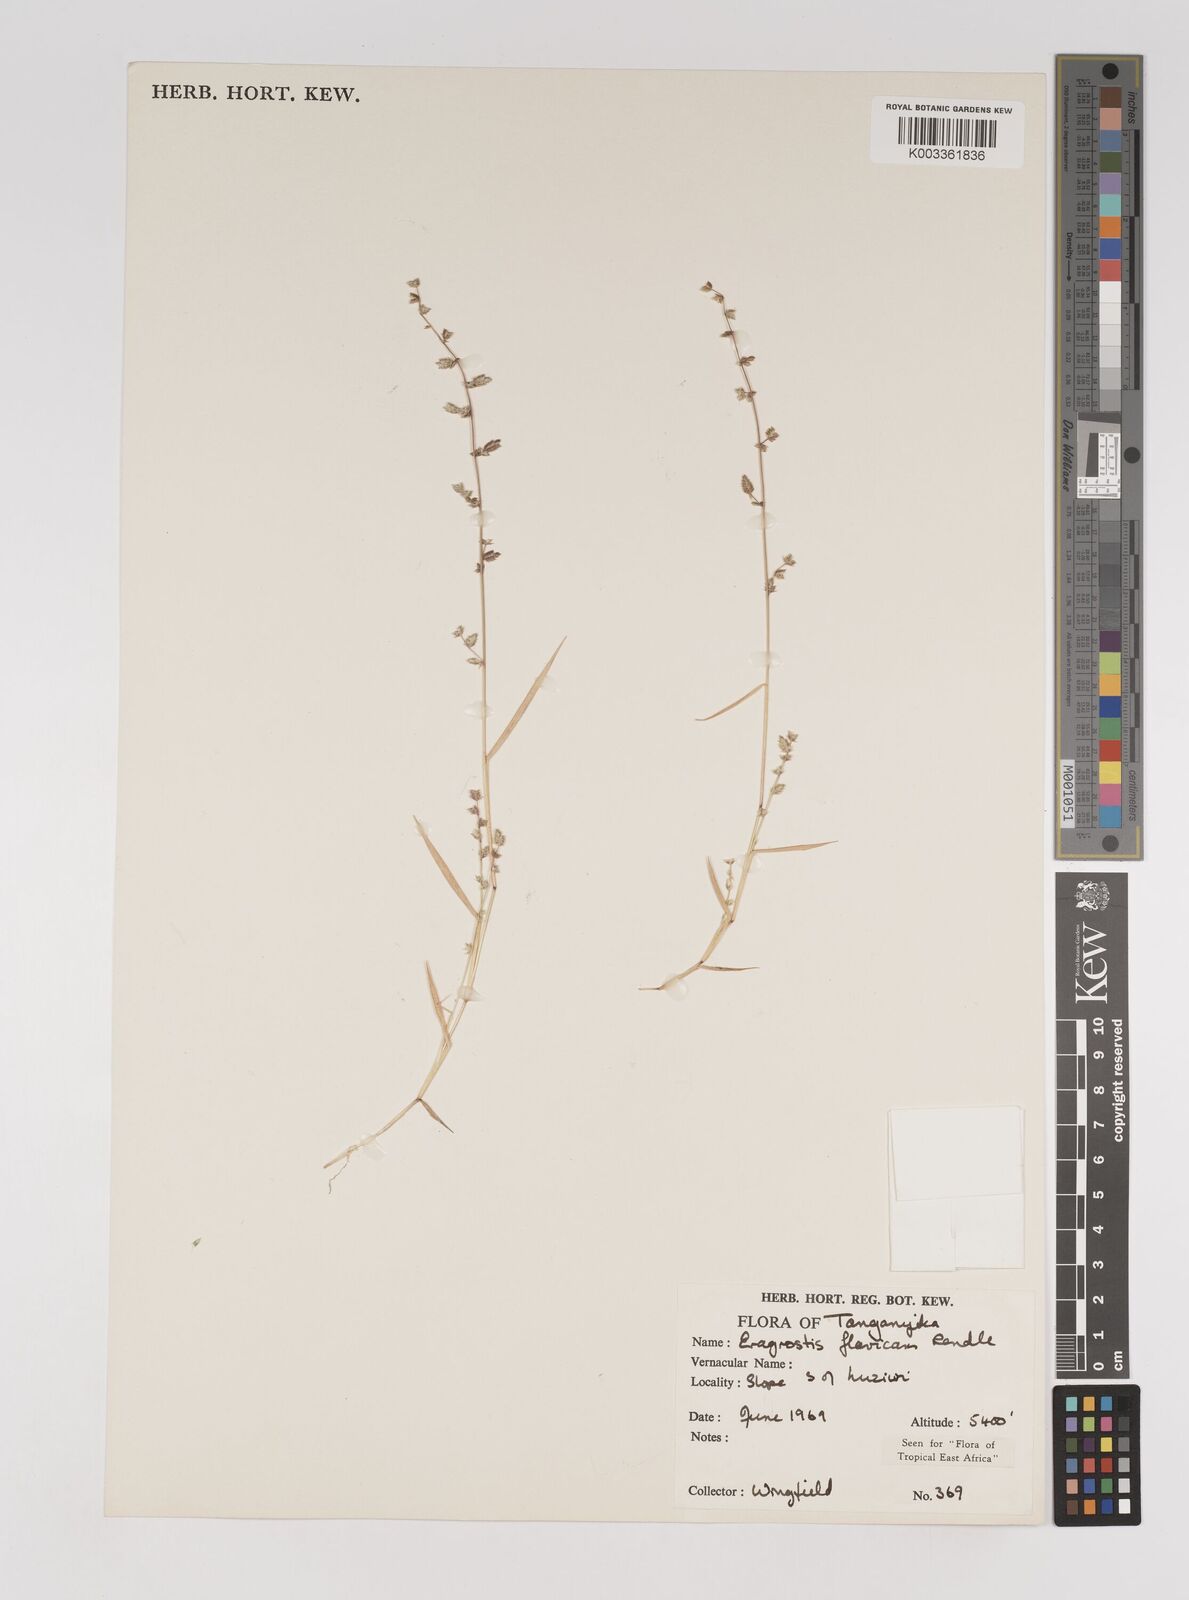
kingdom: Plantae
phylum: Tracheophyta
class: Liliopsida
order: Poales
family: Poaceae
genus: Eragrostis
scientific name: Eragrostis flavicans
